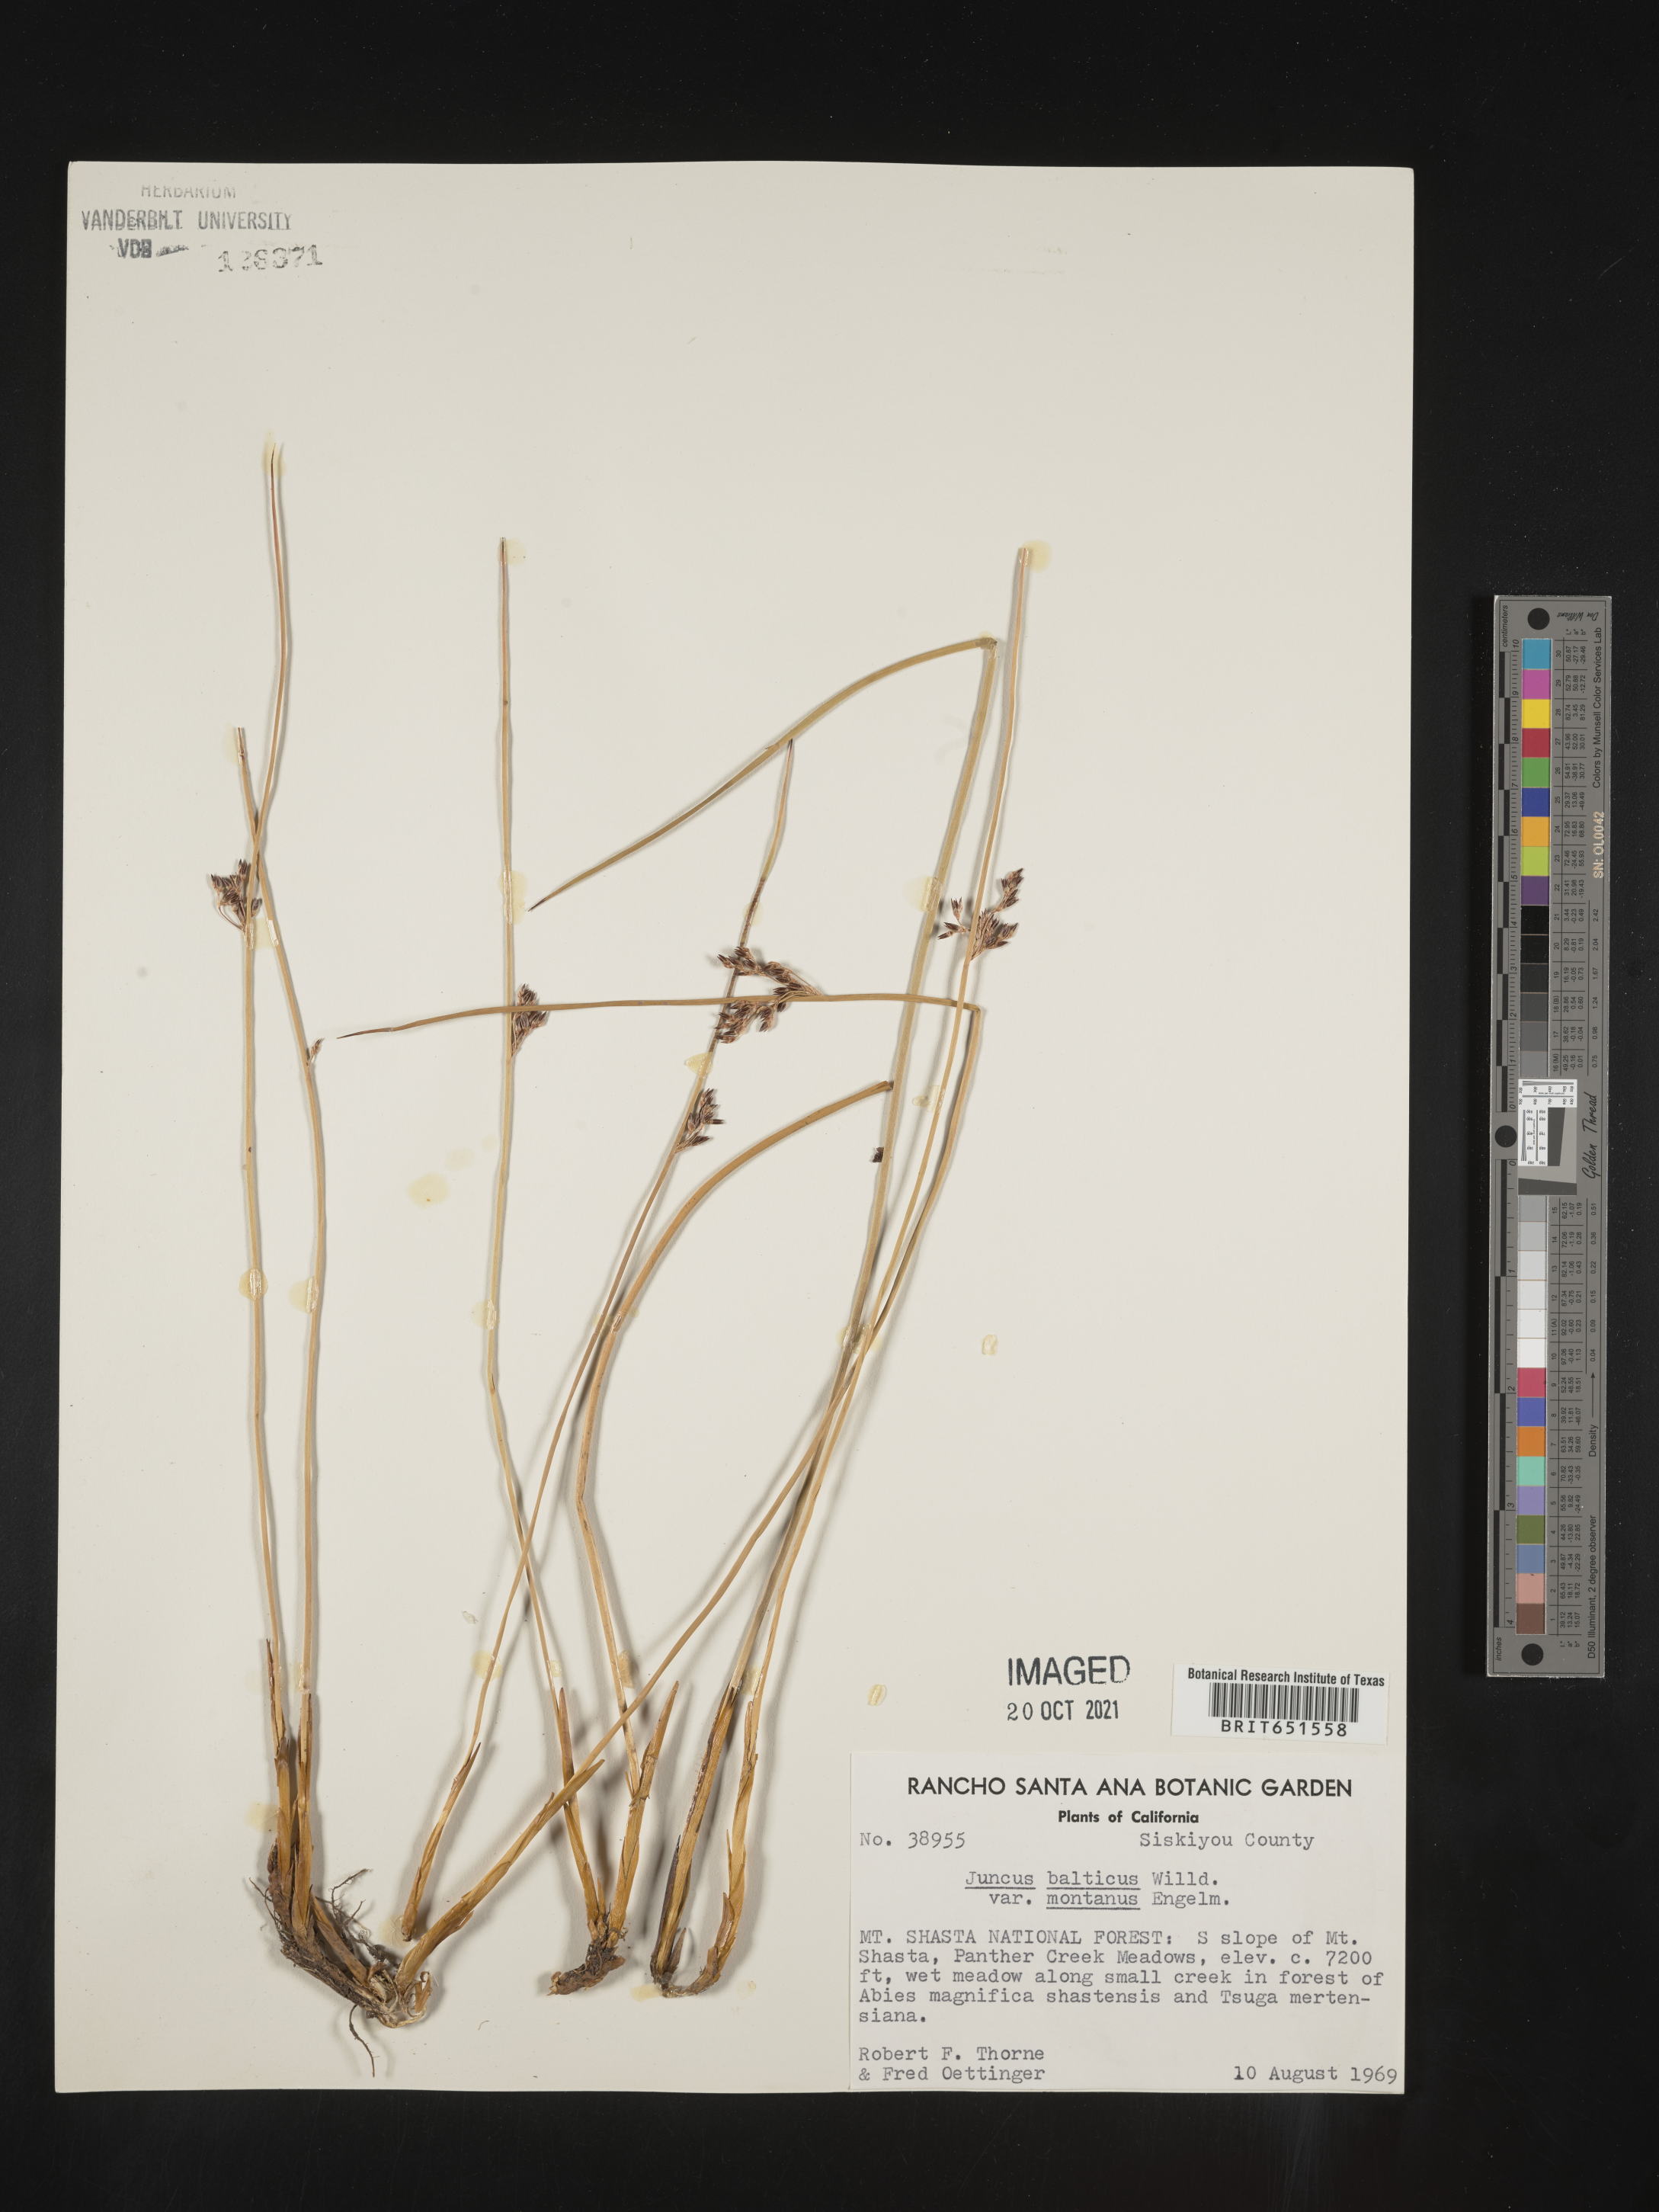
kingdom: Plantae
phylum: Tracheophyta
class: Liliopsida
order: Poales
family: Juncaceae
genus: Juncus
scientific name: Juncus
